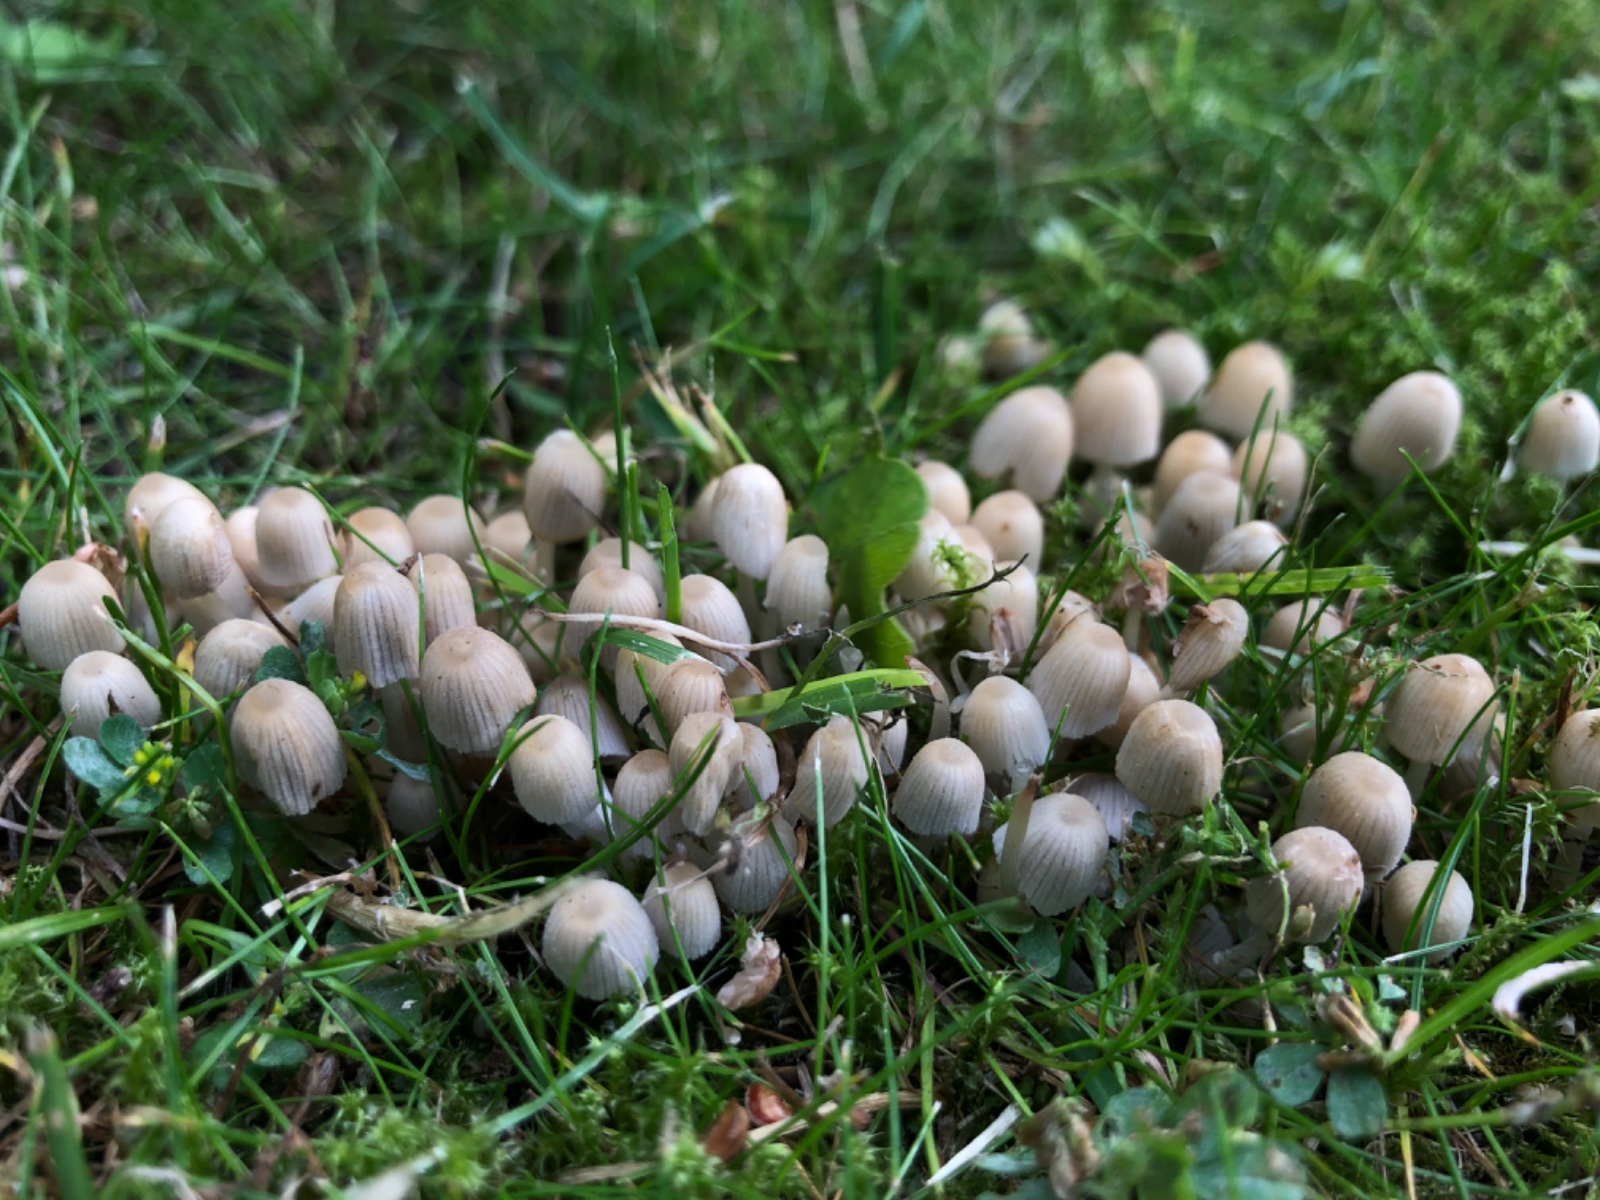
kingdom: Fungi
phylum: Basidiomycota
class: Agaricomycetes
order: Agaricales
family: Psathyrellaceae
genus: Coprinellus
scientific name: Coprinellus disseminatus
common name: bredsået blækhat
